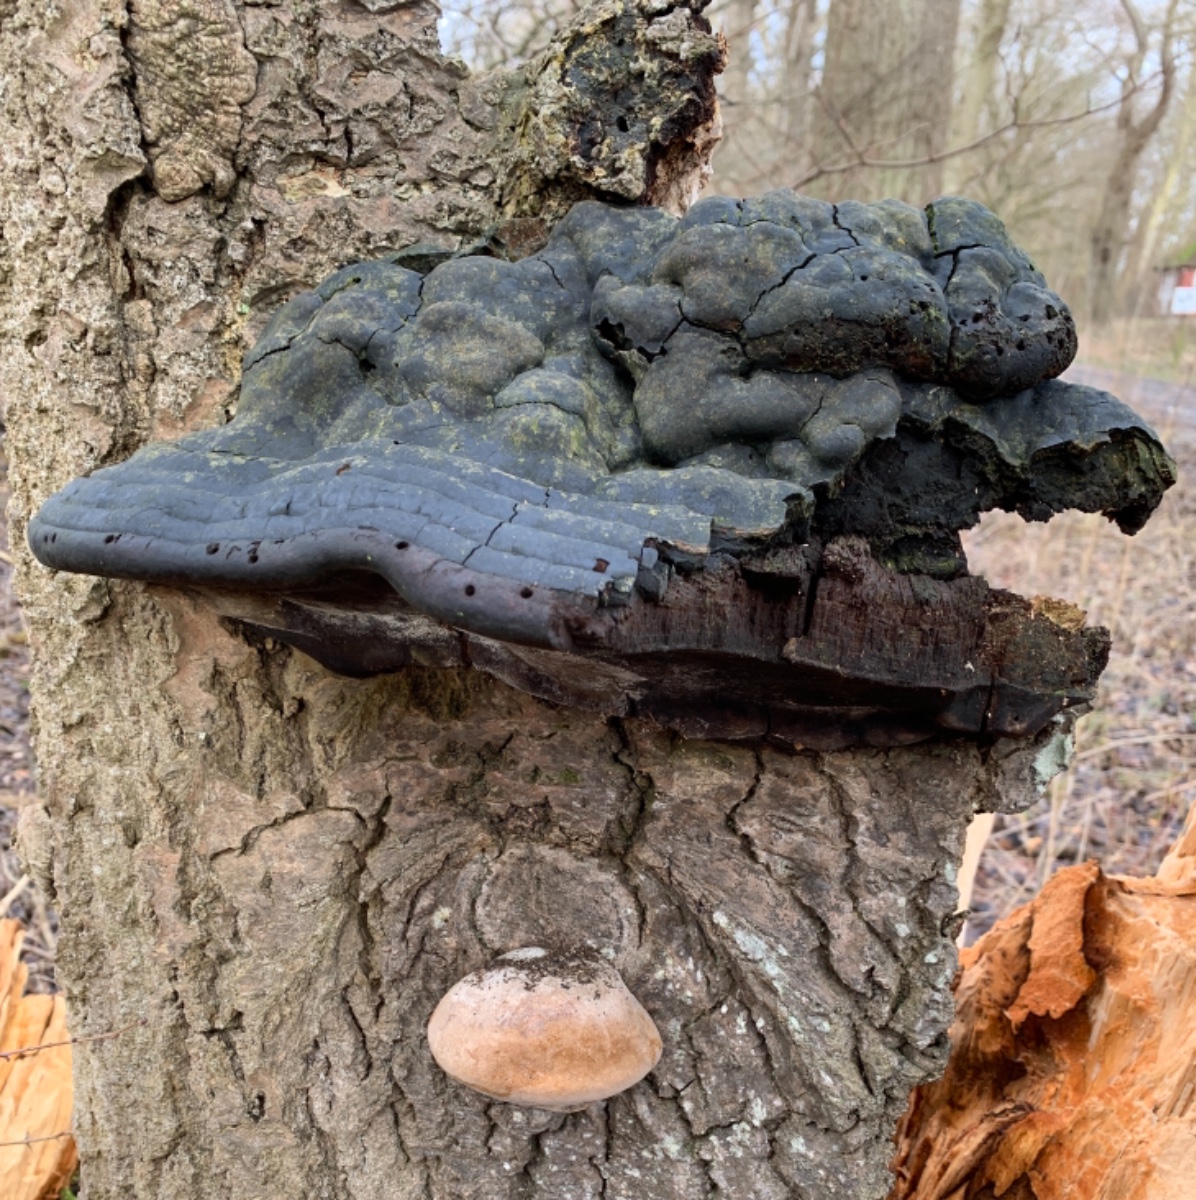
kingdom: Fungi
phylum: Basidiomycota
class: Agaricomycetes
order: Hymenochaetales
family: Hymenochaetaceae
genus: Phellinus
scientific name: Phellinus populicola
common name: poppel-ildporesvamp
